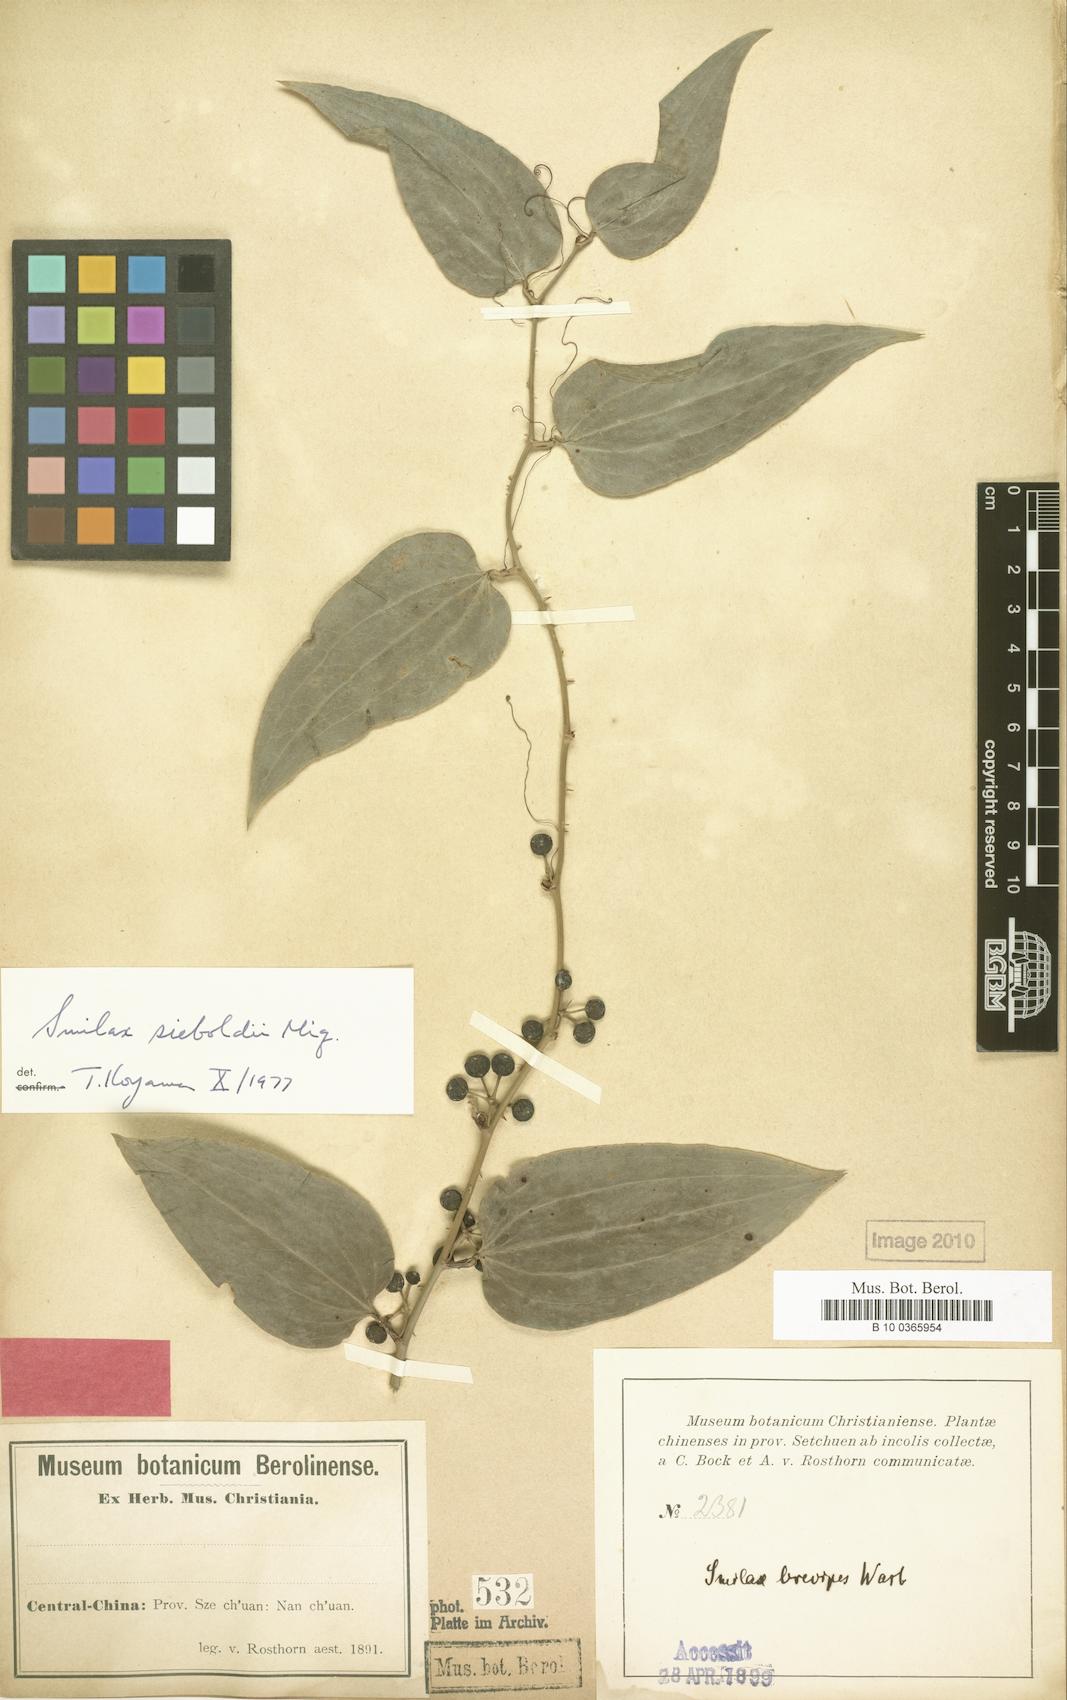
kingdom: Plantae
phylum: Tracheophyta
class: Liliopsida
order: Liliales
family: Smilacaceae
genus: Smilax
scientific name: Smilax scobinicaulis
